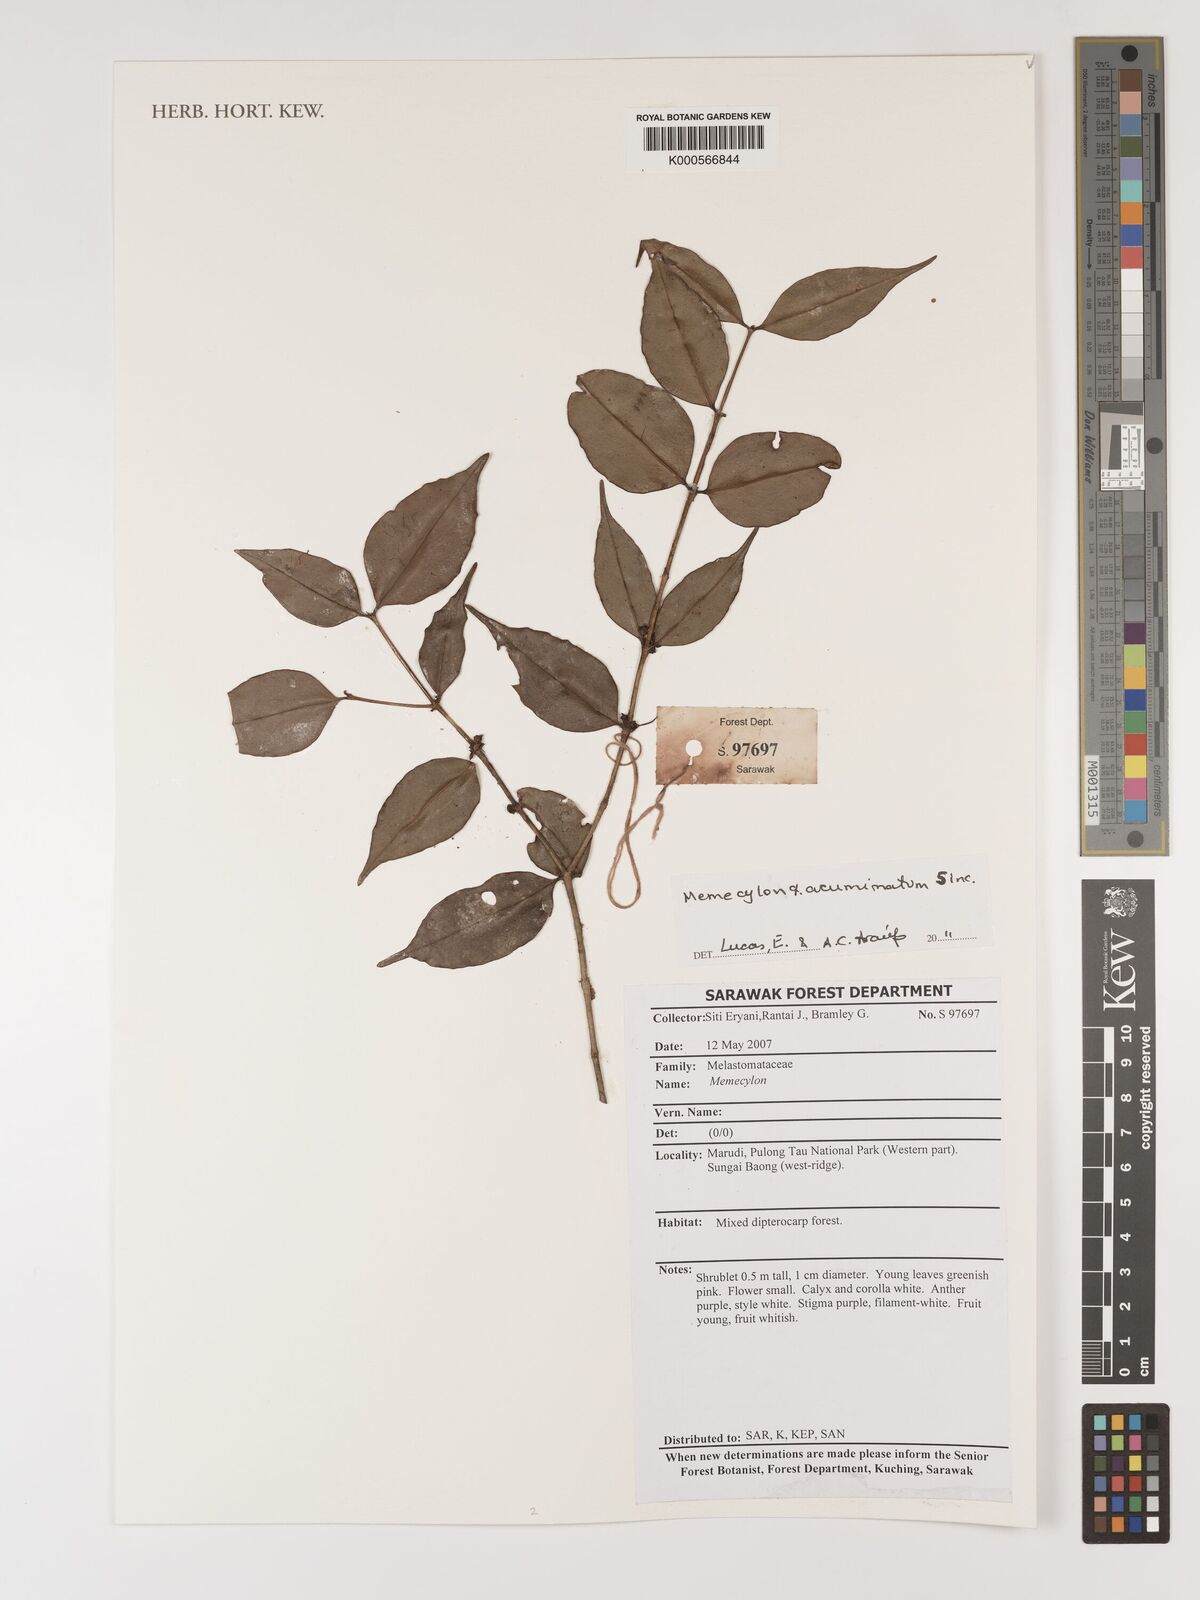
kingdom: Plantae
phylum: Tracheophyta
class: Magnoliopsida
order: Myrtales
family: Melastomataceae
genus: Memecylon
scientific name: Memecylon
